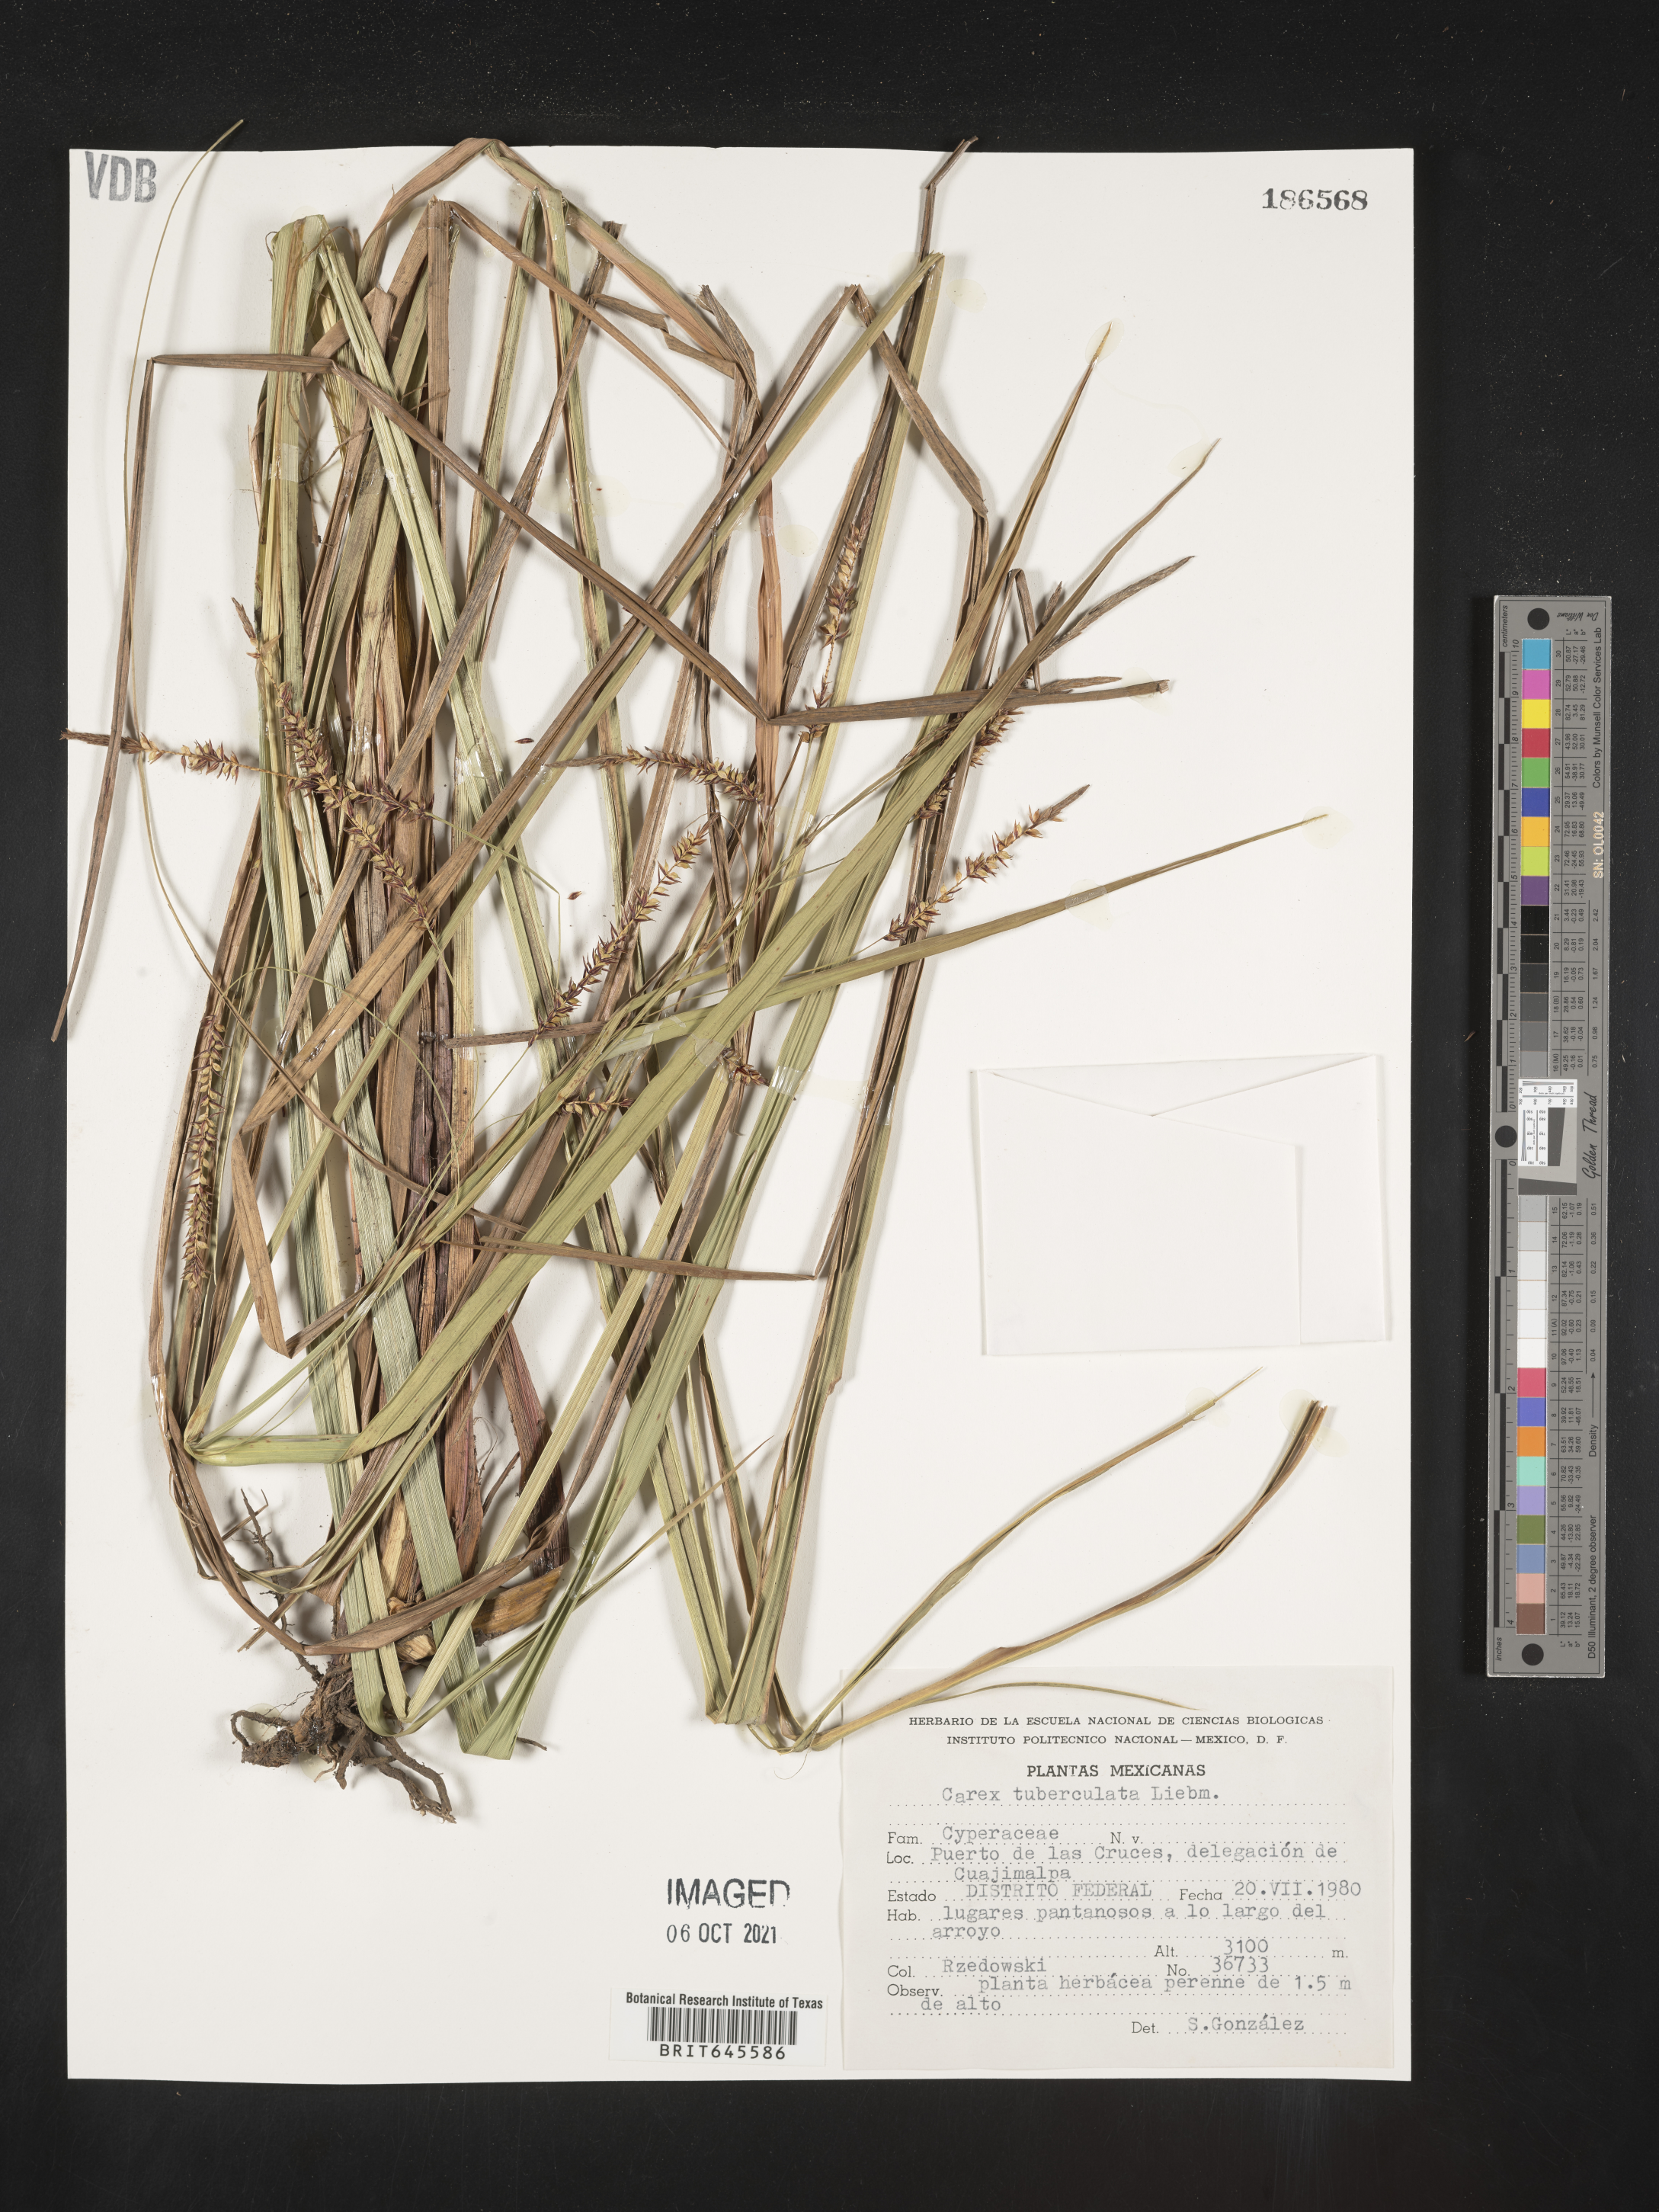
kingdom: Plantae
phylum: Tracheophyta
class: Liliopsida
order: Poales
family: Cyperaceae
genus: Carex
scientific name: Carex
